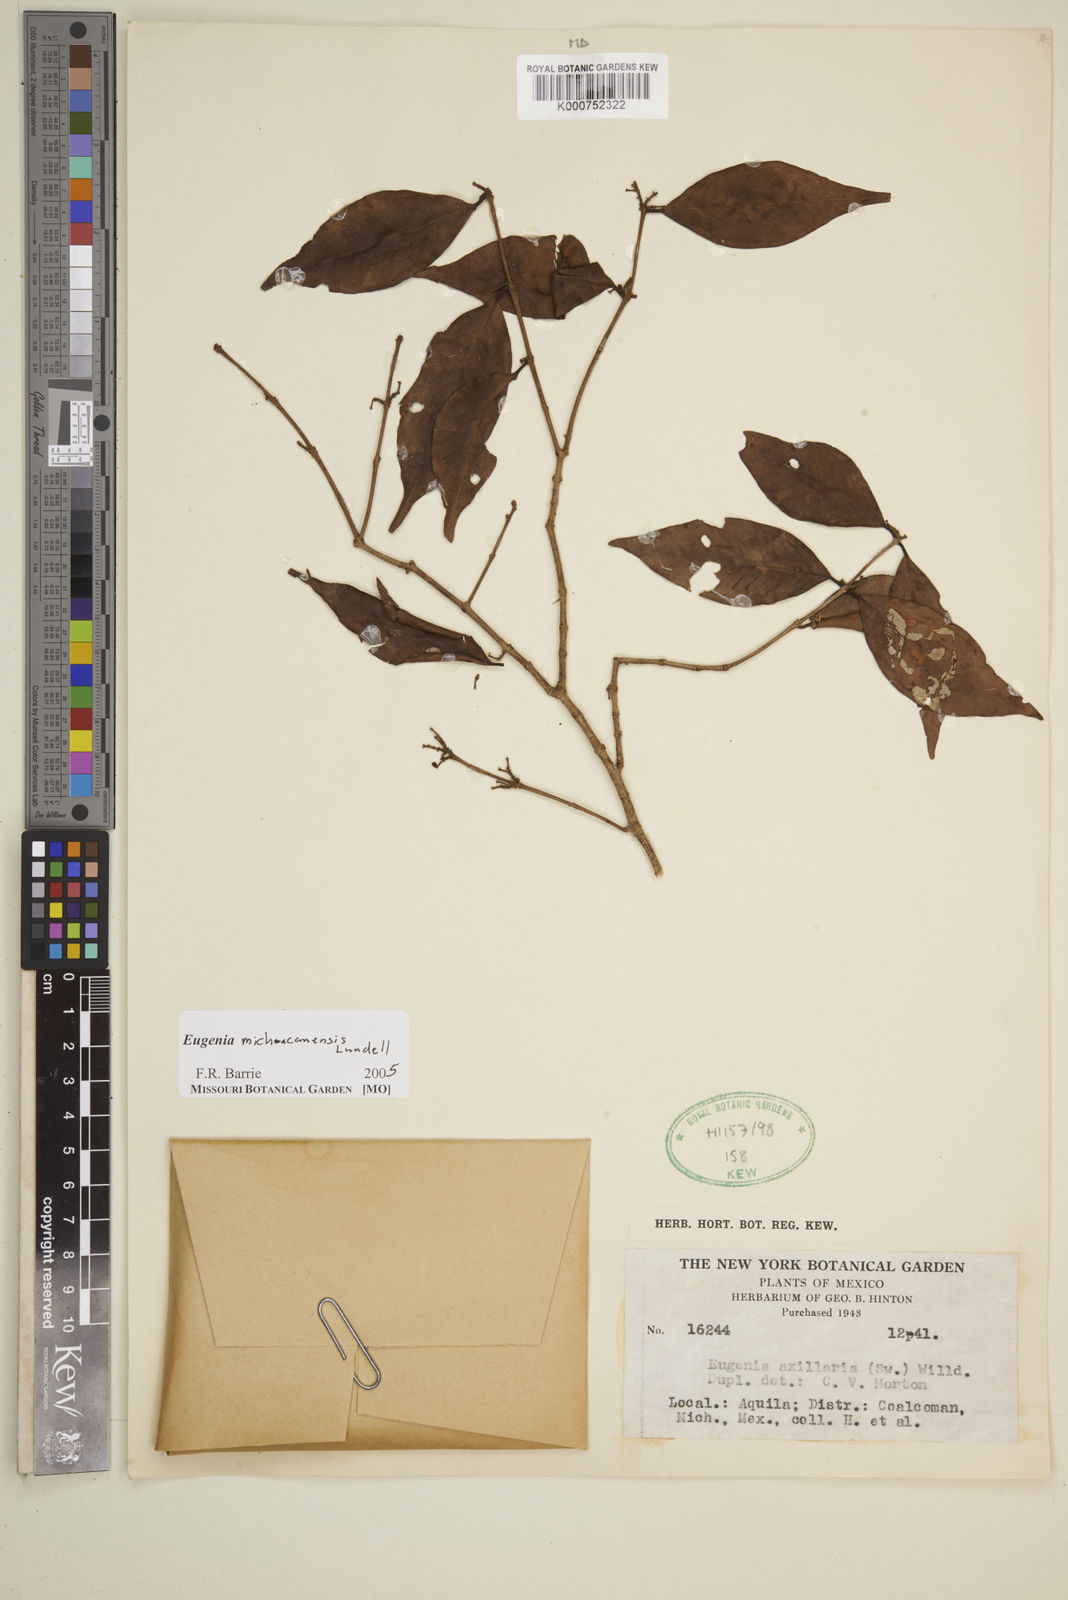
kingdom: Plantae
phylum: Tracheophyta
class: Magnoliopsida
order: Myrtales
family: Myrtaceae
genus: Eugenia
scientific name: Eugenia michoacanensis
